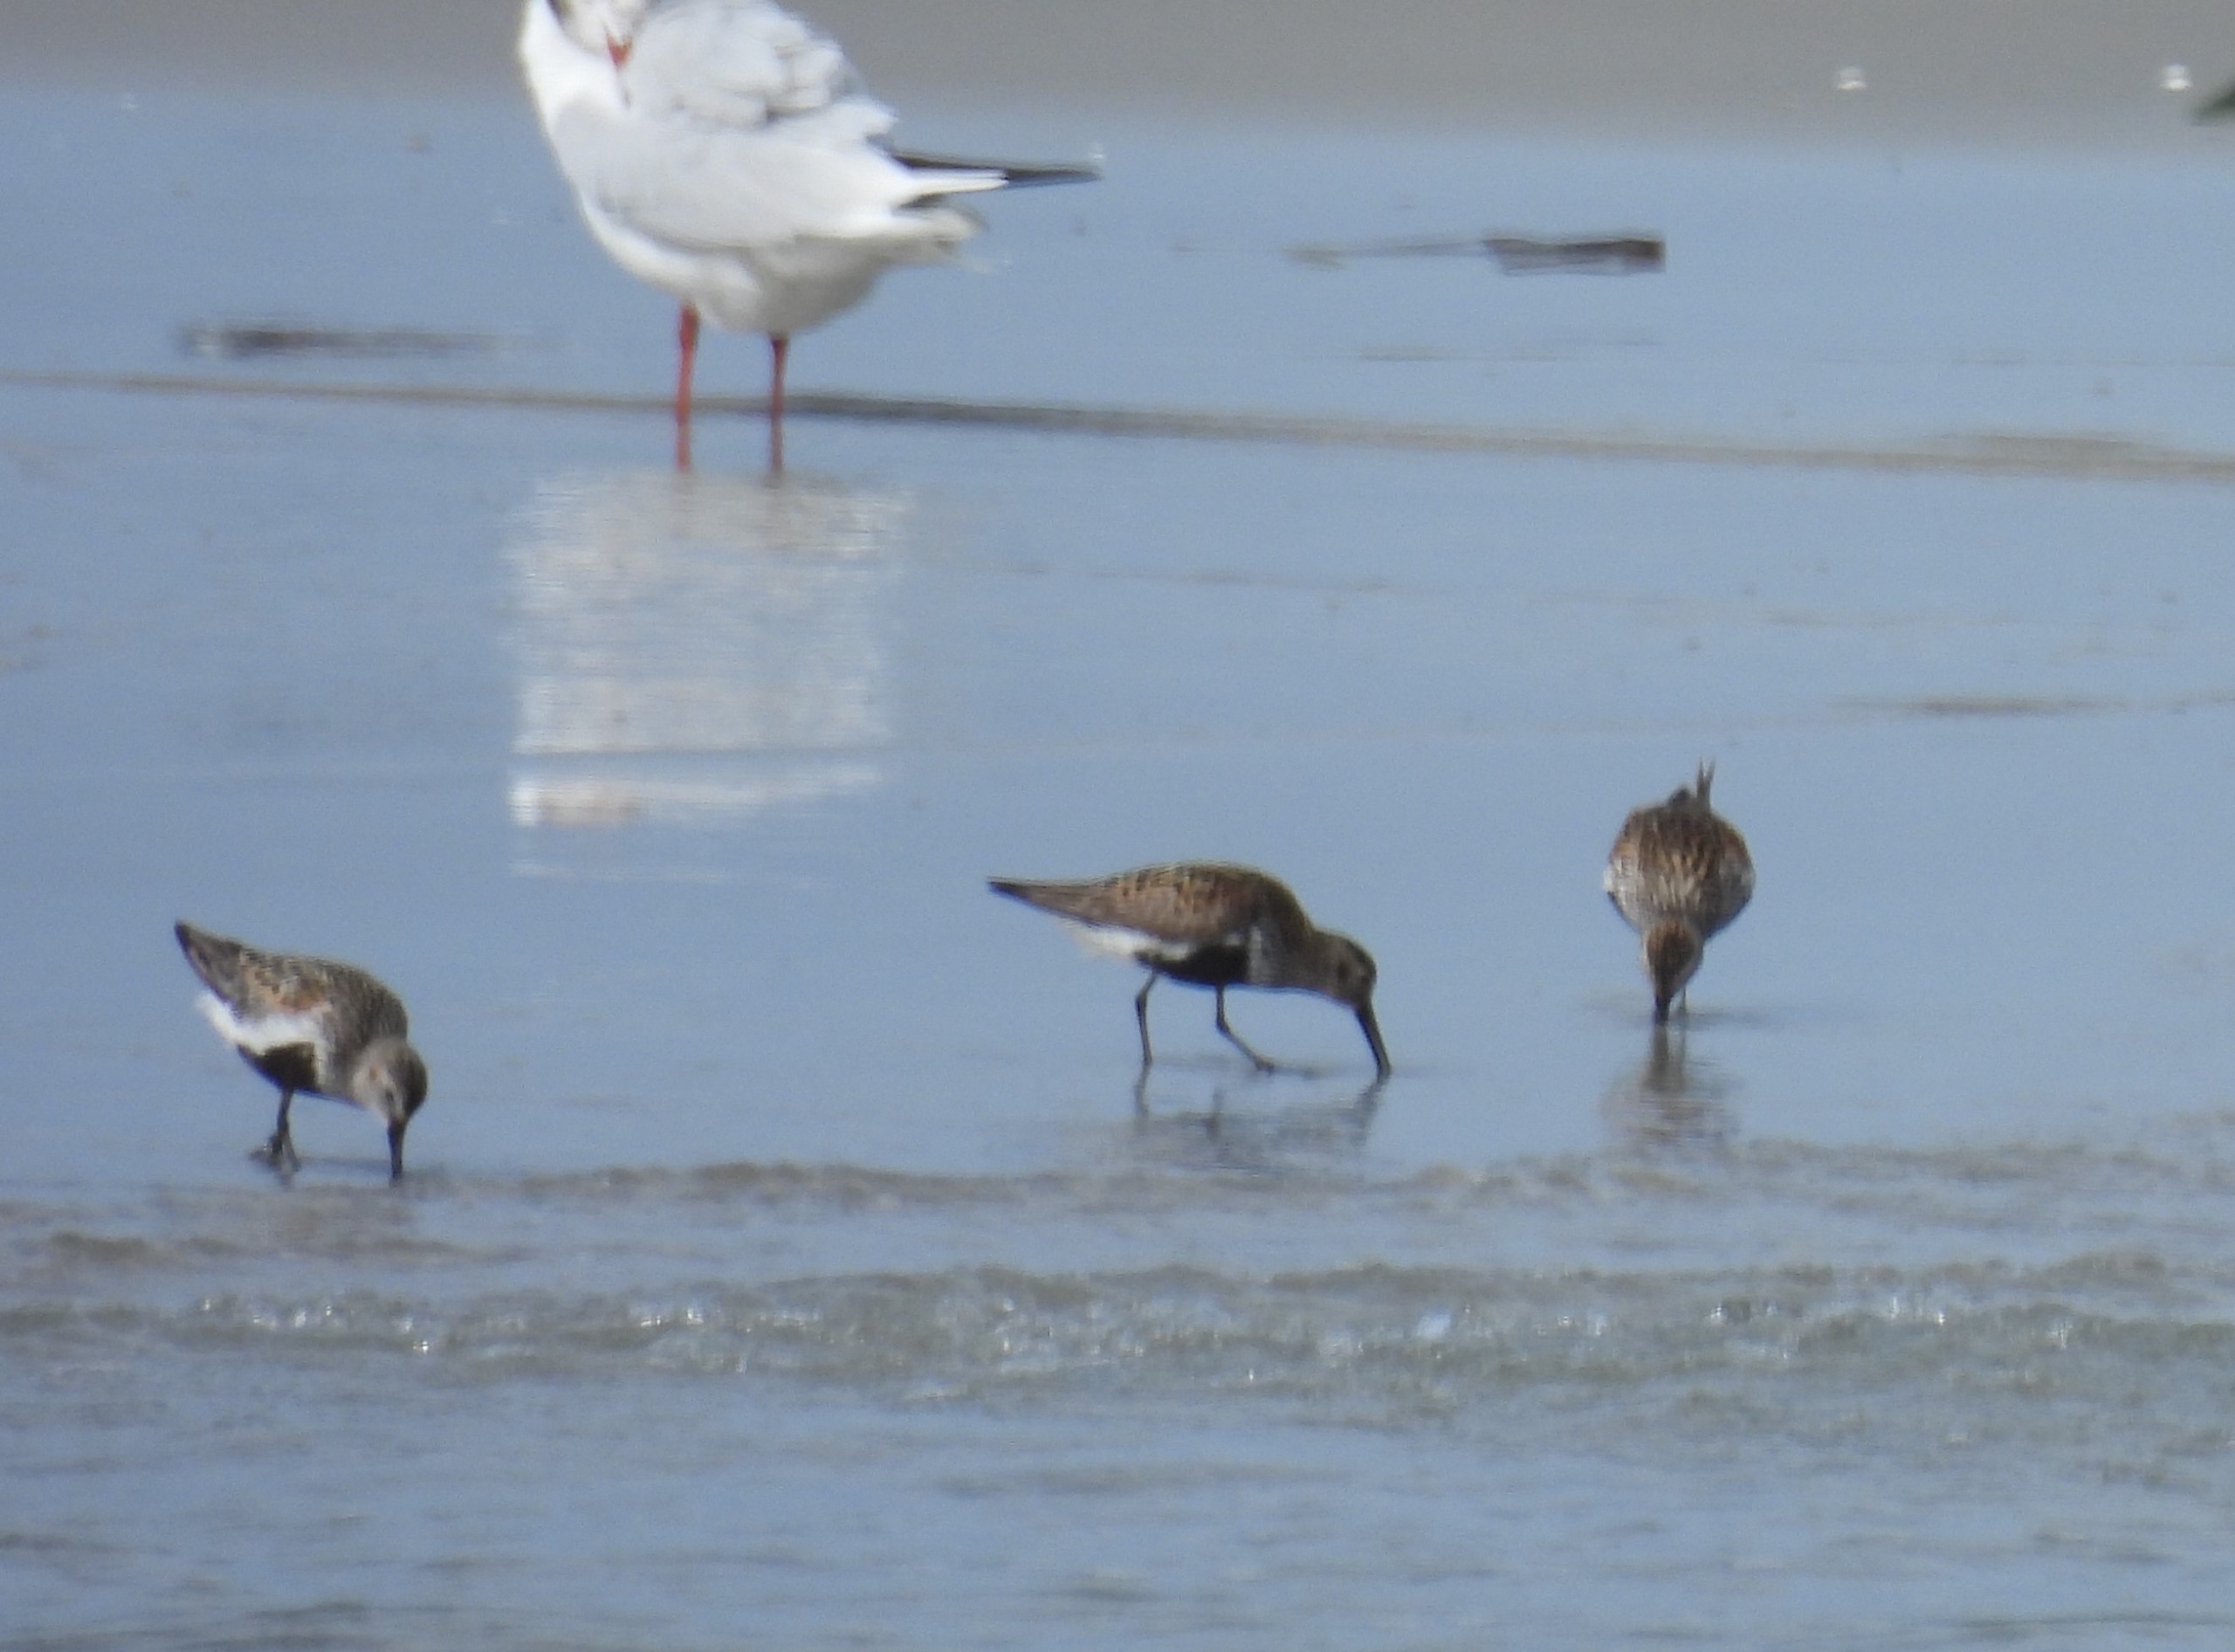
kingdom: Animalia
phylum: Chordata
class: Aves
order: Charadriiformes
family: Scolopacidae
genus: Calidris
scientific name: Calidris alpina
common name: Almindelig ryle
